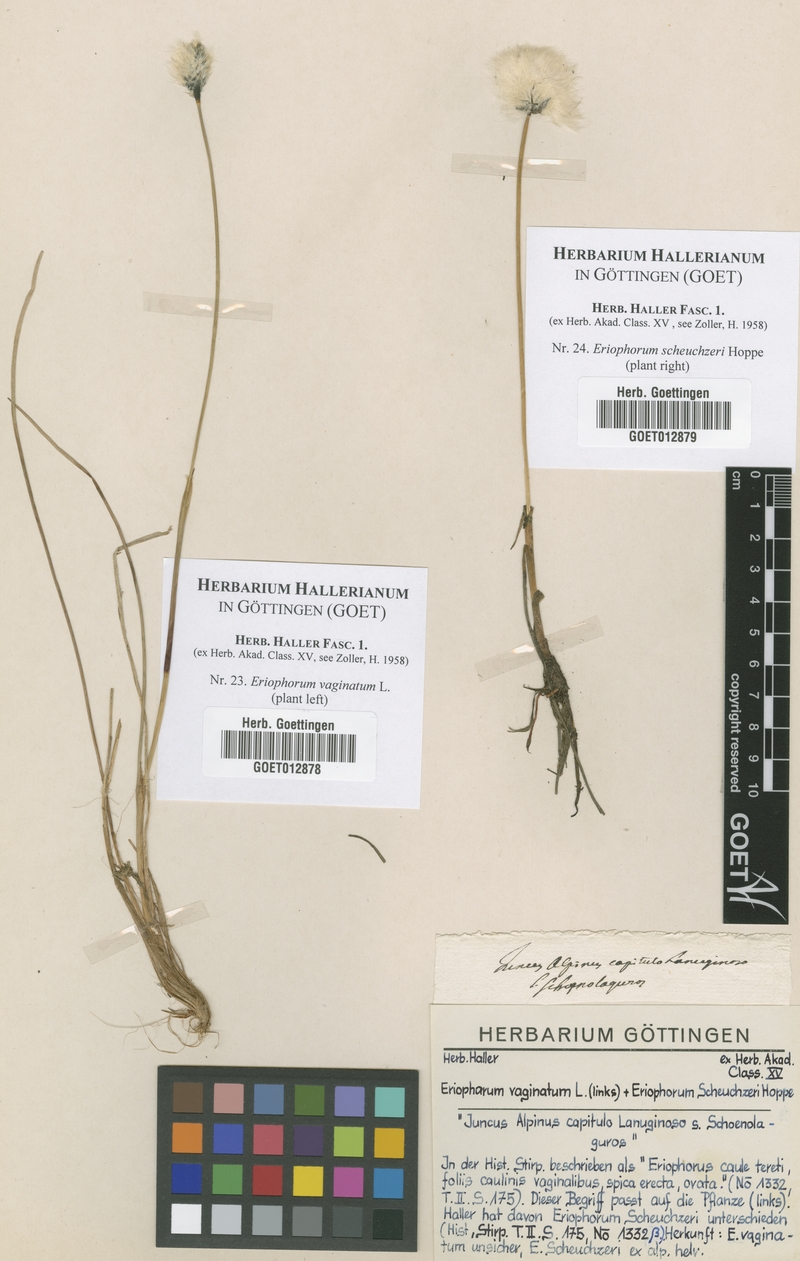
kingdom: Plantae
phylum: Tracheophyta
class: Liliopsida
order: Poales
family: Cyperaceae
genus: Eriophorum
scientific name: Eriophorum vaginatum
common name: Hare's-tail cottongrass
